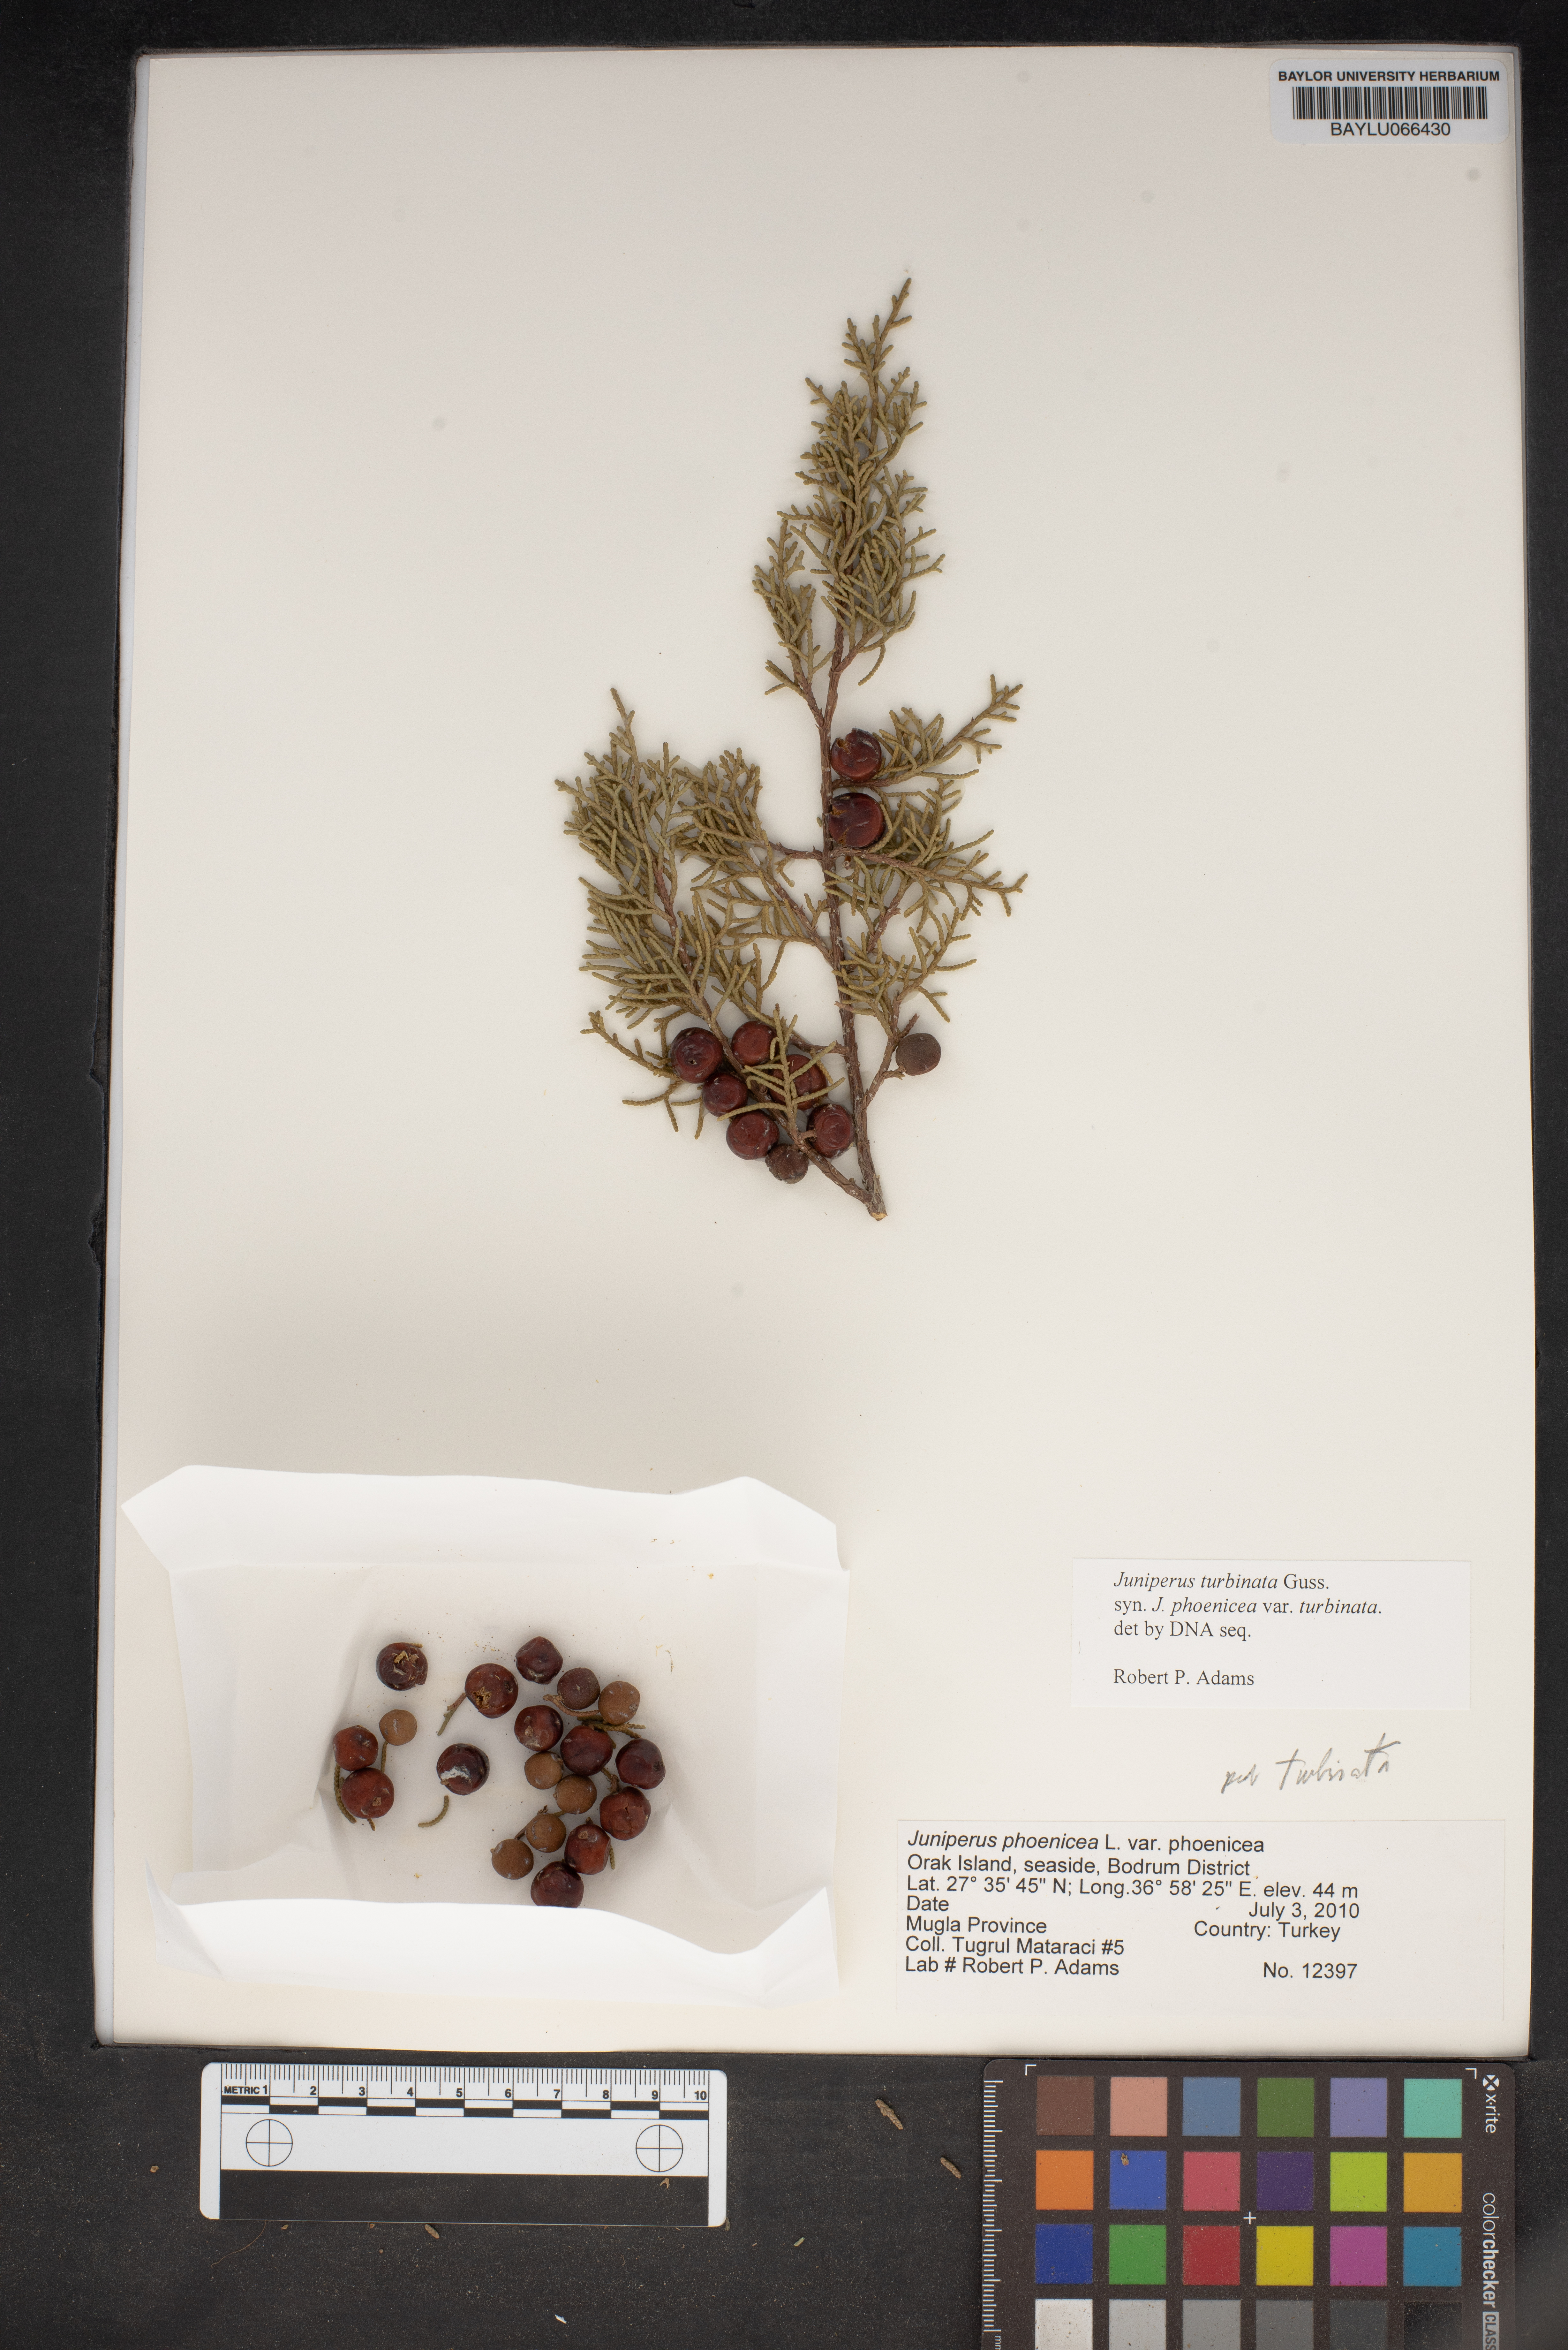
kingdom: Plantae
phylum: Tracheophyta
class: Pinopsida
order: Pinales
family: Cupressaceae
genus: Juniperus
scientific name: Juniperus phoenicea
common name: Phoenician juniper
